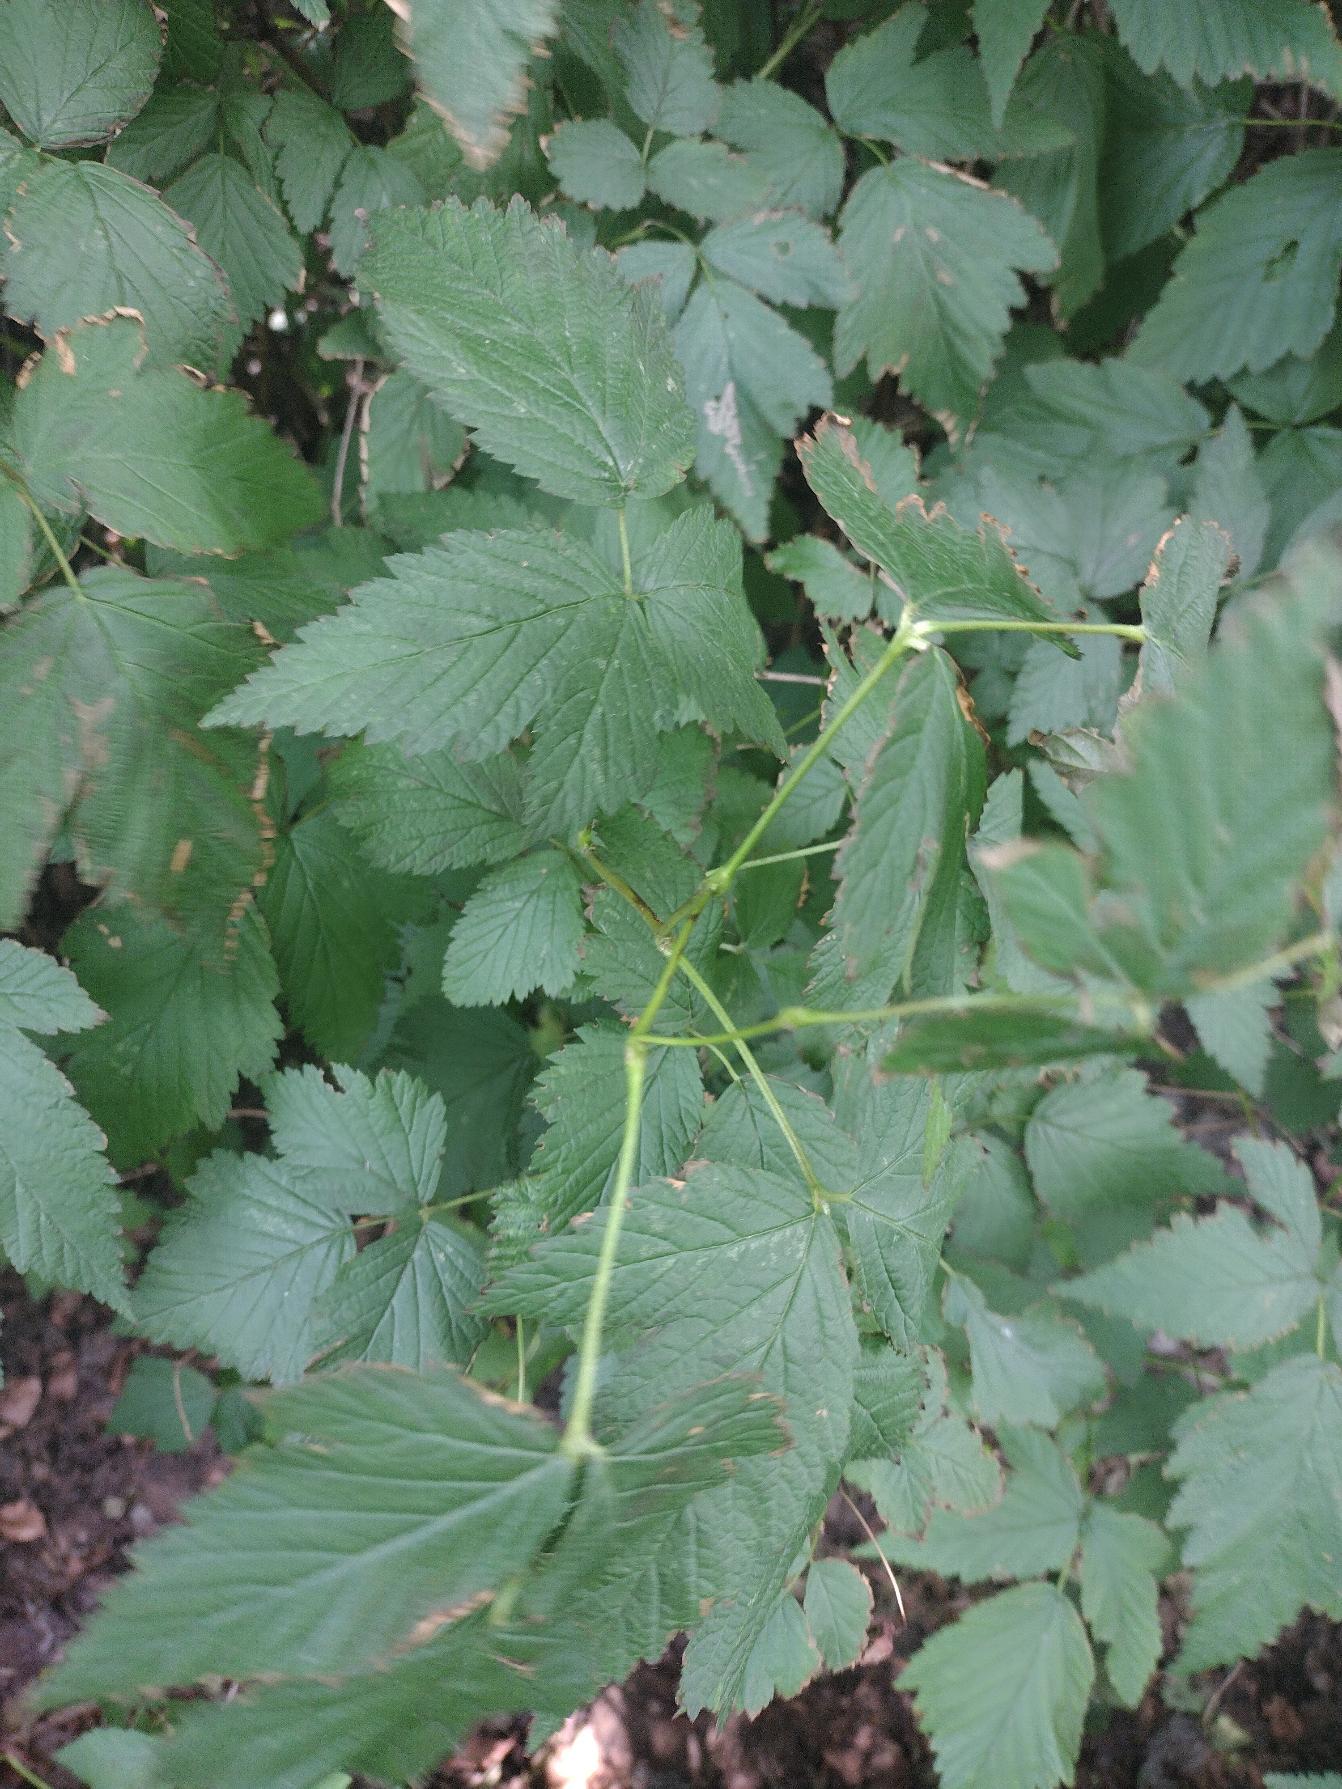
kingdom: Plantae
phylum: Tracheophyta
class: Magnoliopsida
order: Rosales
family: Rosaceae
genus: Rubus
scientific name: Rubus spectabilis
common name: Laksebær
